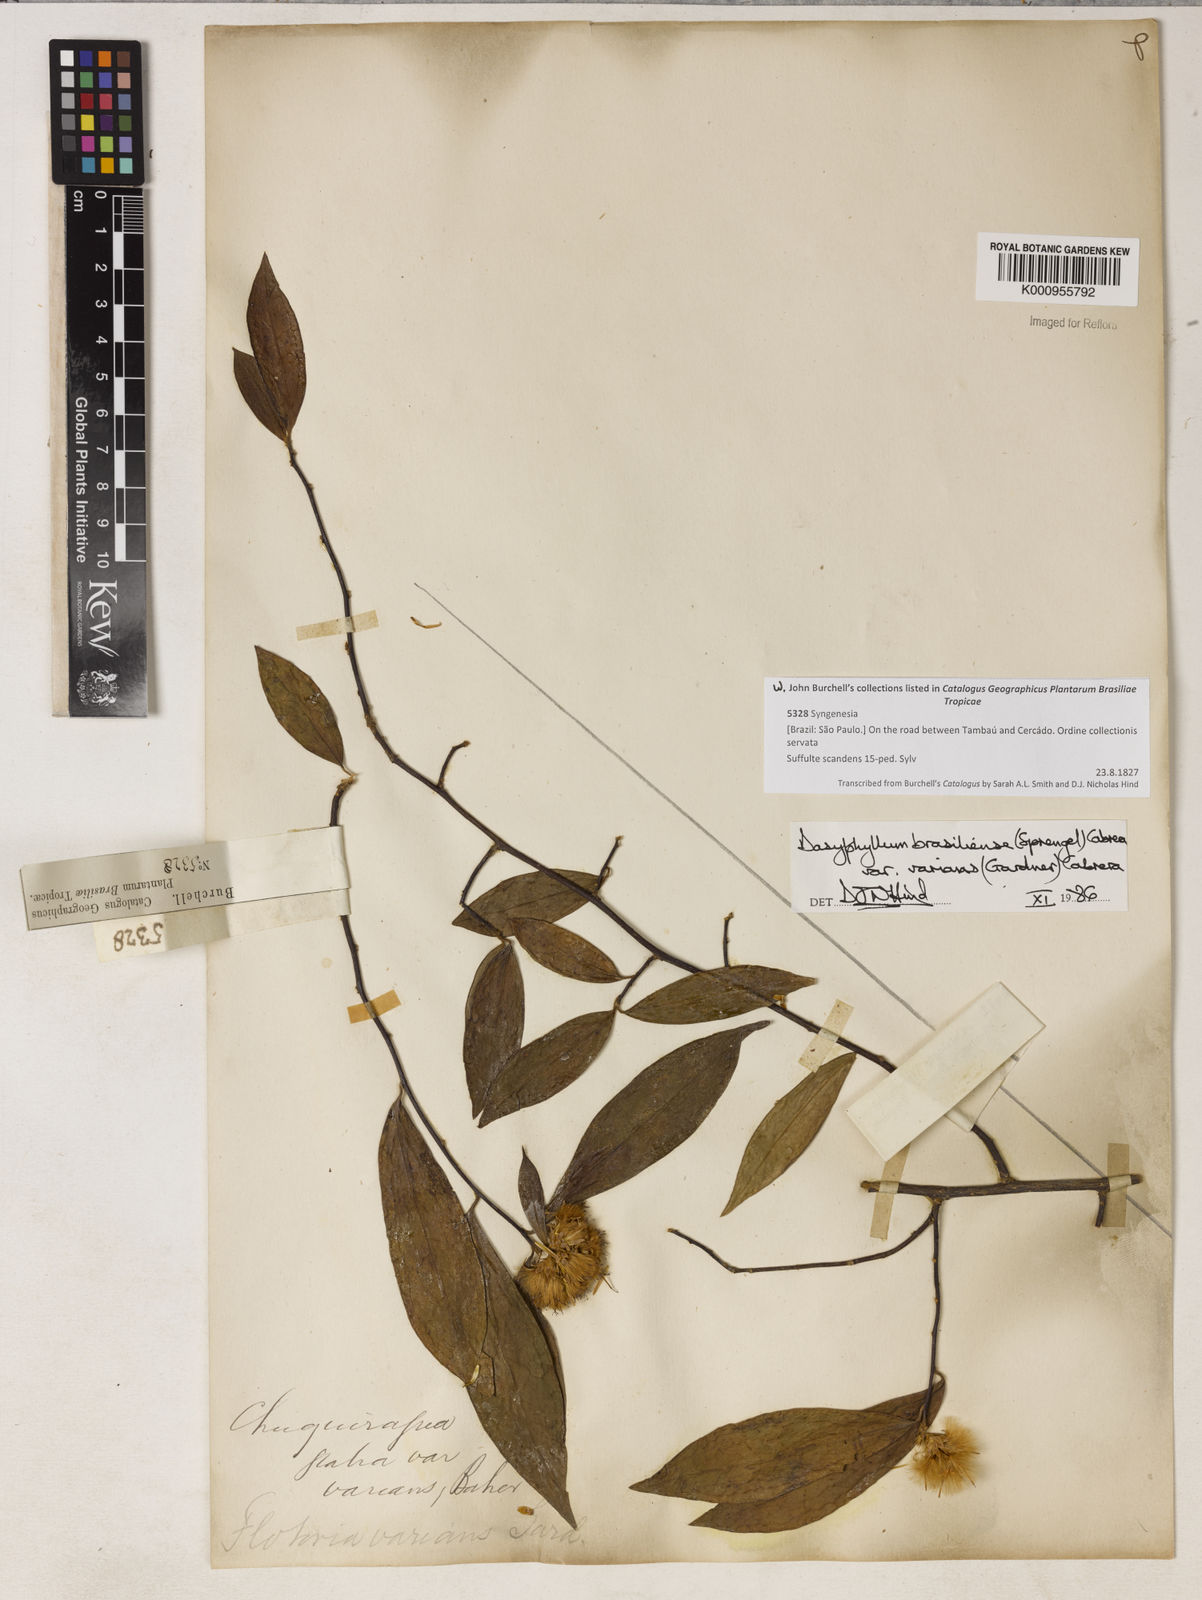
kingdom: Plantae
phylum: Tracheophyta
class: Magnoliopsida
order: Asterales
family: Asteraceae
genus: Dasyphyllum
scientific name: Dasyphyllum varians
